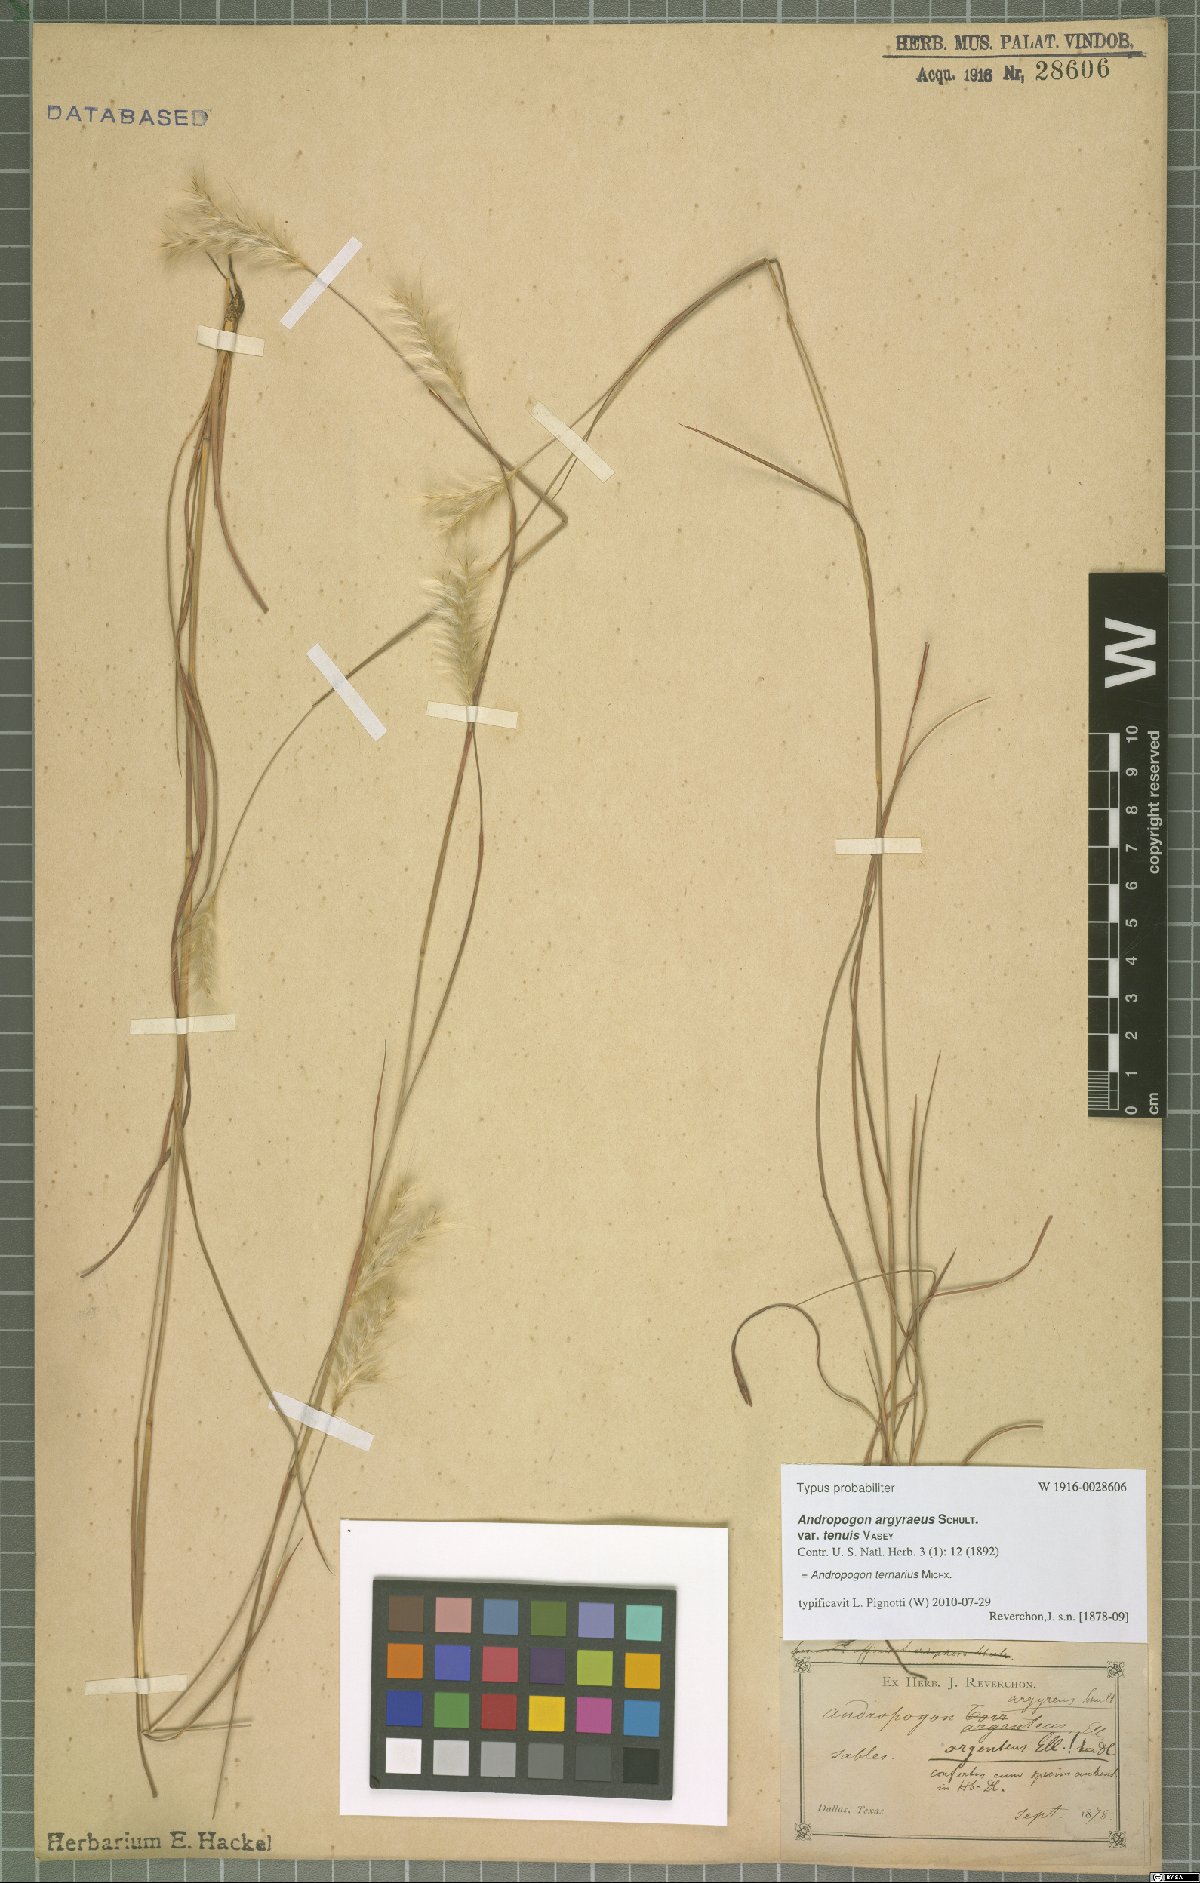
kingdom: Plantae
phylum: Tracheophyta
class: Liliopsida
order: Poales
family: Poaceae
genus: Andropogon
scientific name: Andropogon ternarius
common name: Split bluestem
